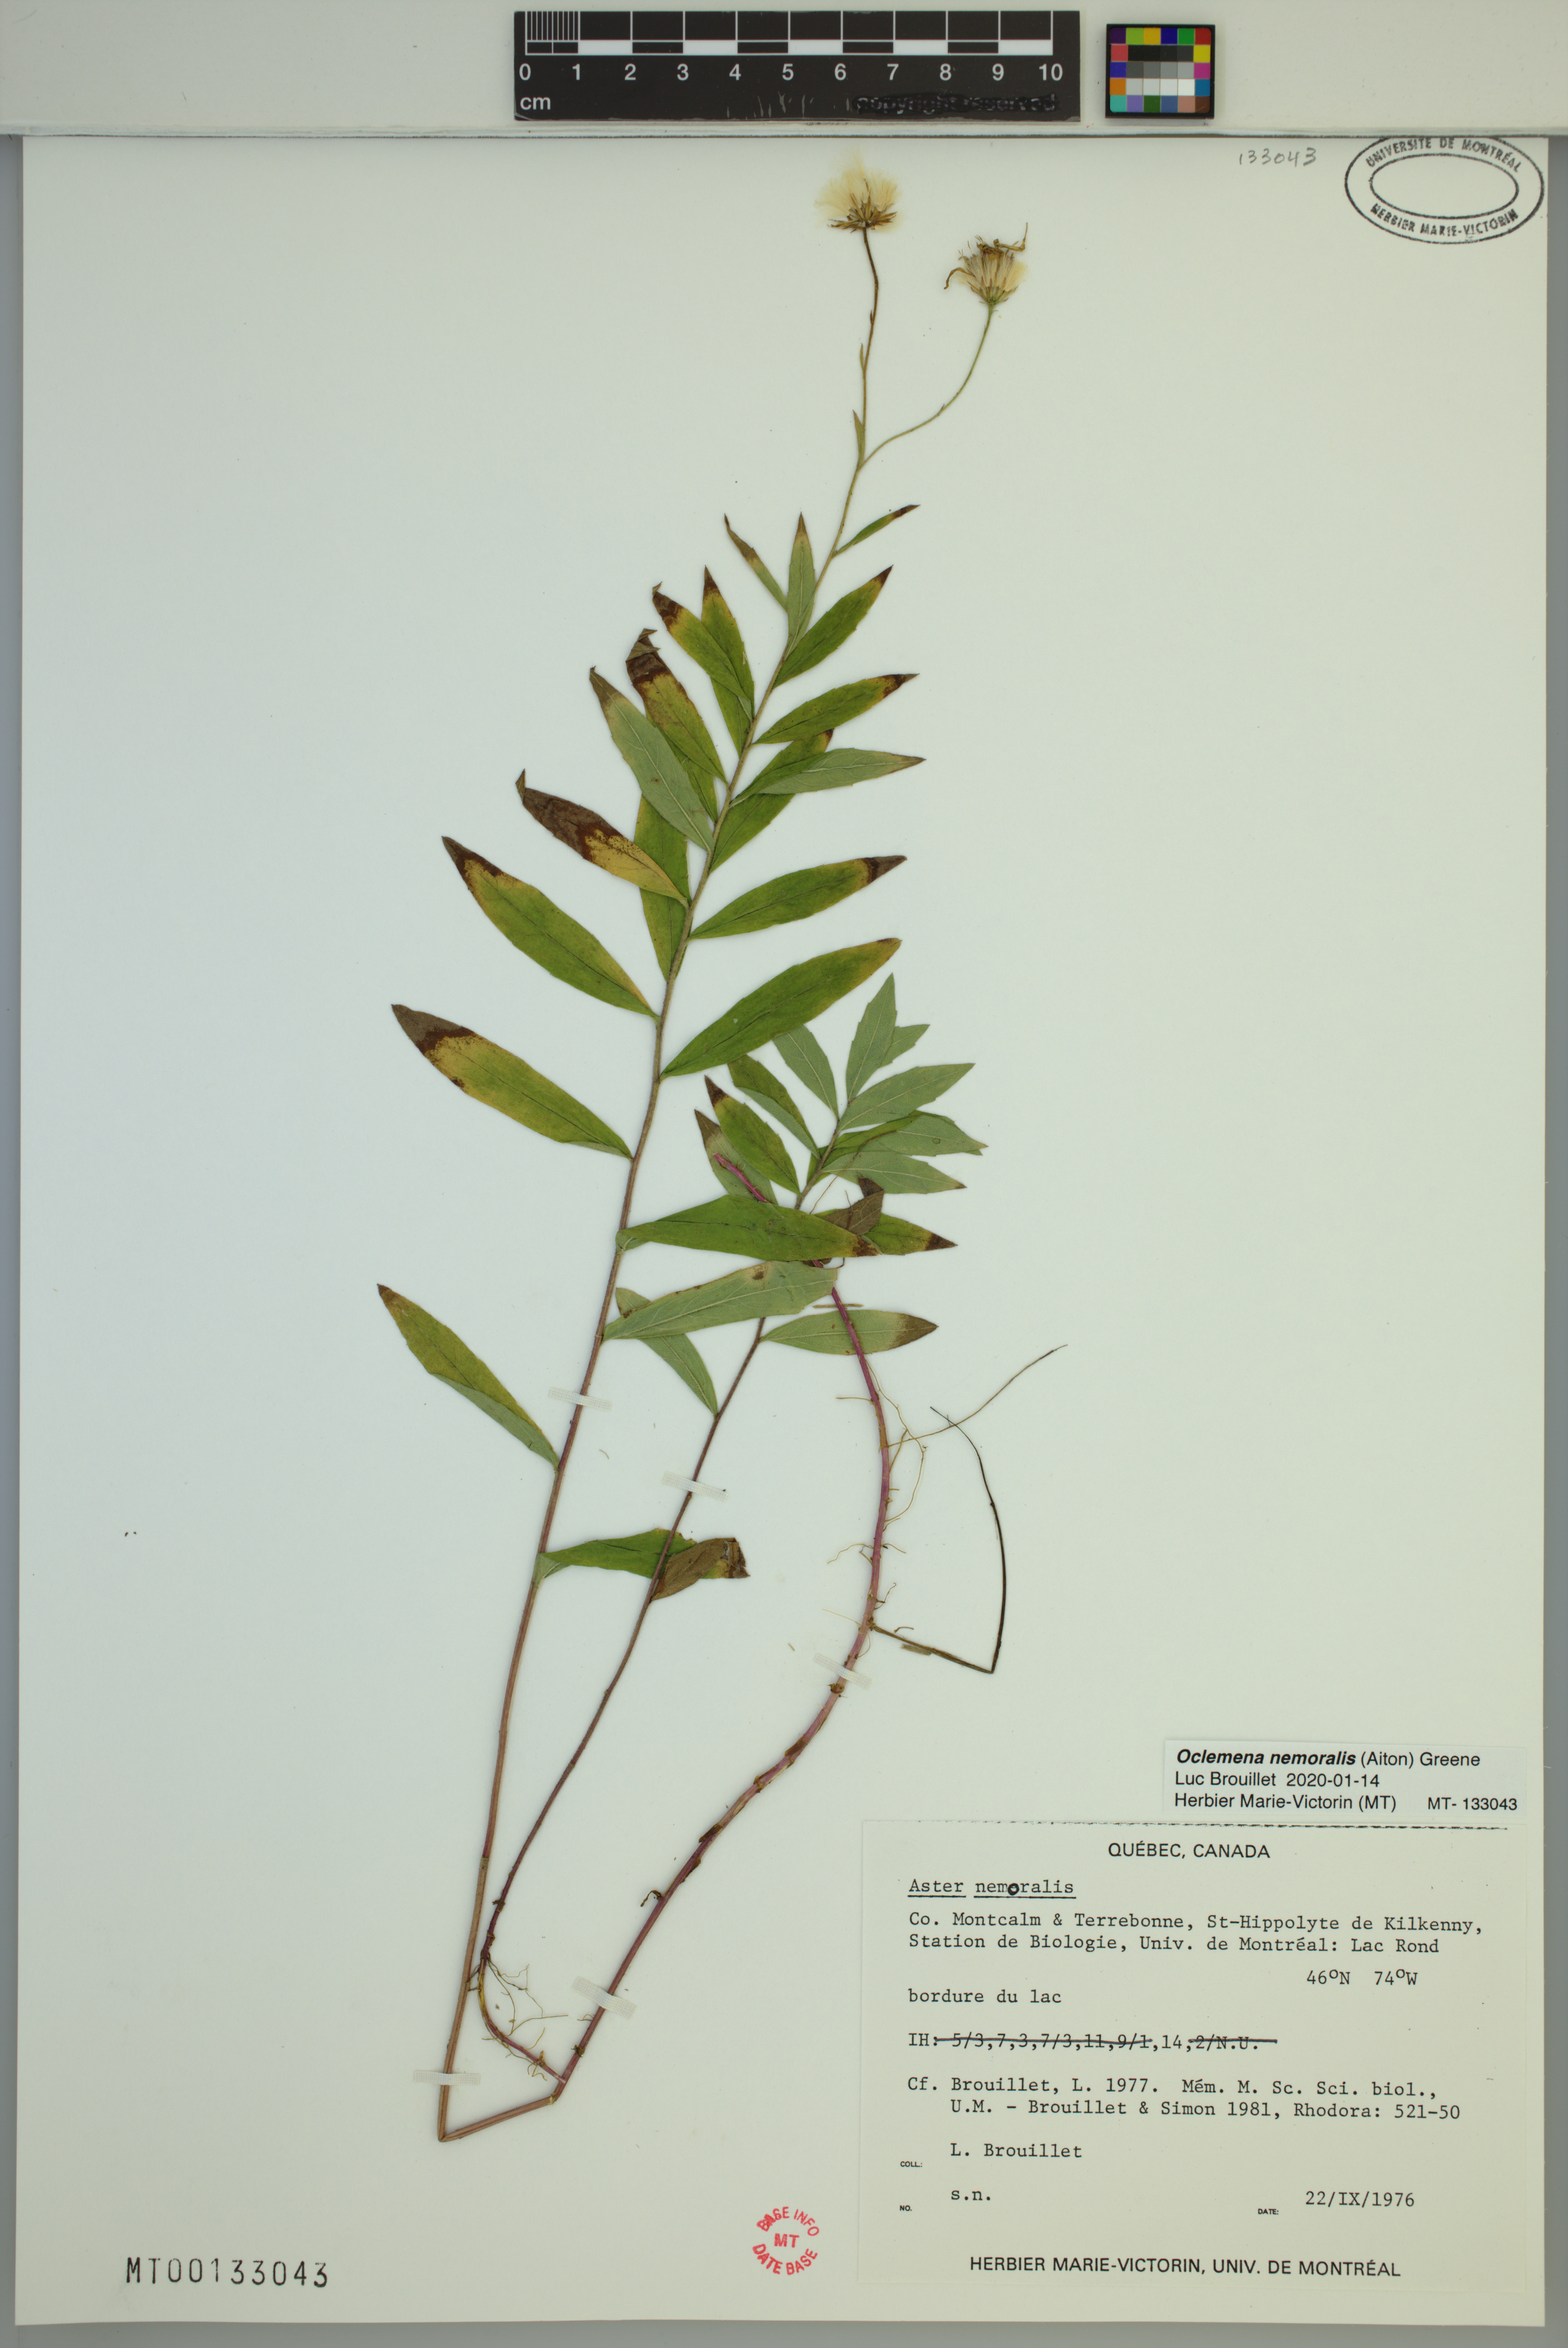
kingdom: Plantae
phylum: Tracheophyta
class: Magnoliopsida
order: Asterales
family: Asteraceae
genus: Oclemena
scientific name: Oclemena nemoralis
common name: Bog aster
